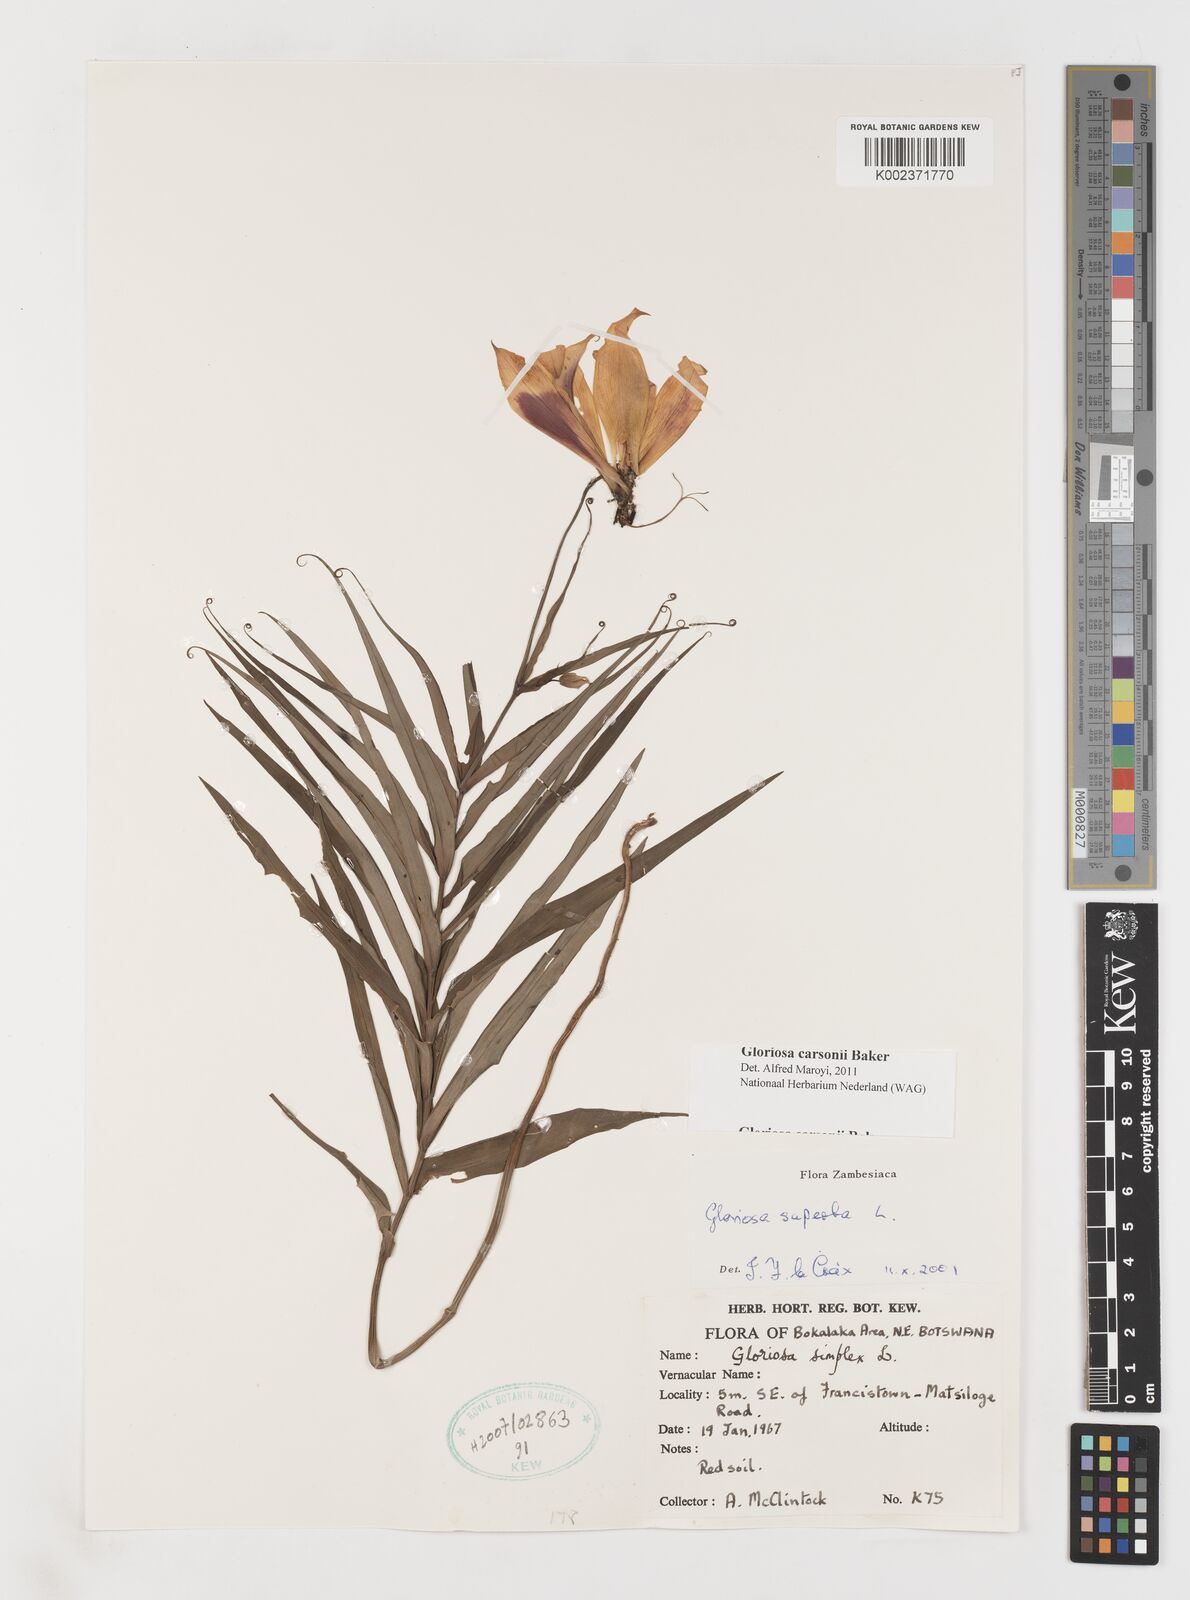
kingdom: Plantae
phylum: Tracheophyta
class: Liliopsida
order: Liliales
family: Colchicaceae
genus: Gloriosa
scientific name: Gloriosa carsonii
